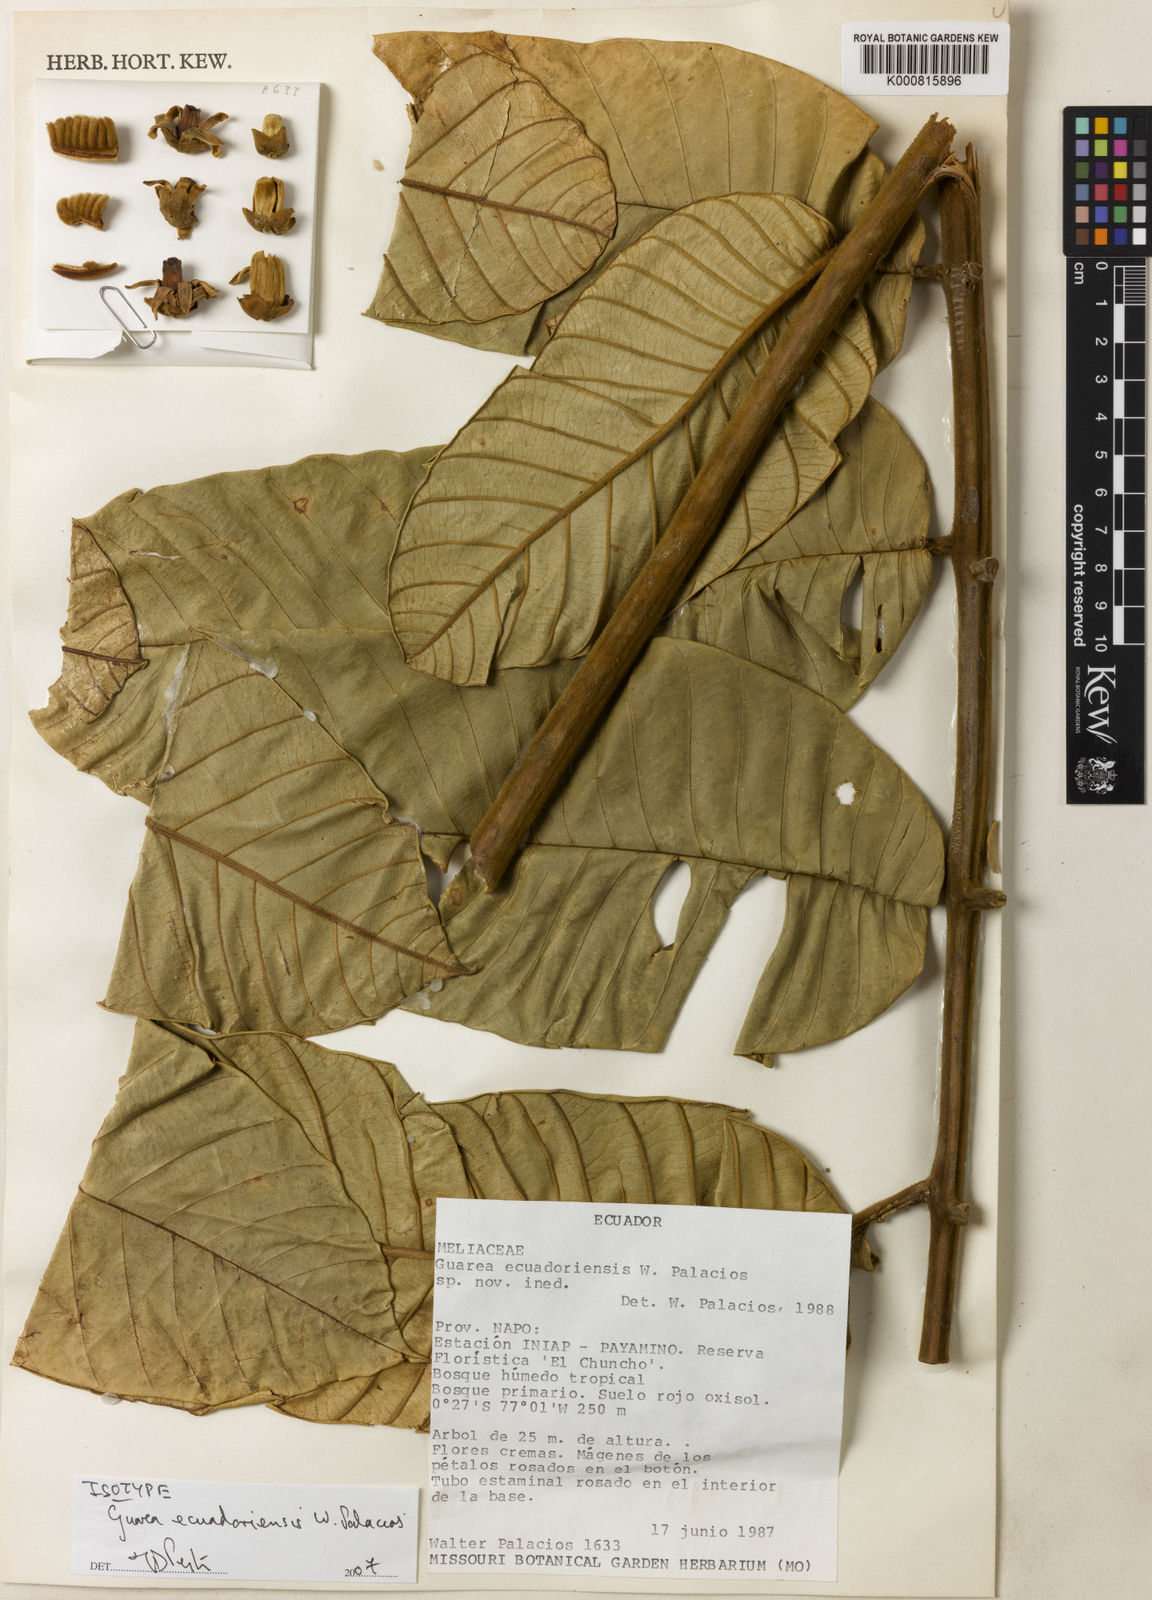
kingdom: Plantae
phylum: Tracheophyta
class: Magnoliopsida
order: Sapindales
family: Meliaceae
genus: Guarea
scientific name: Guarea ecuadoriensis
